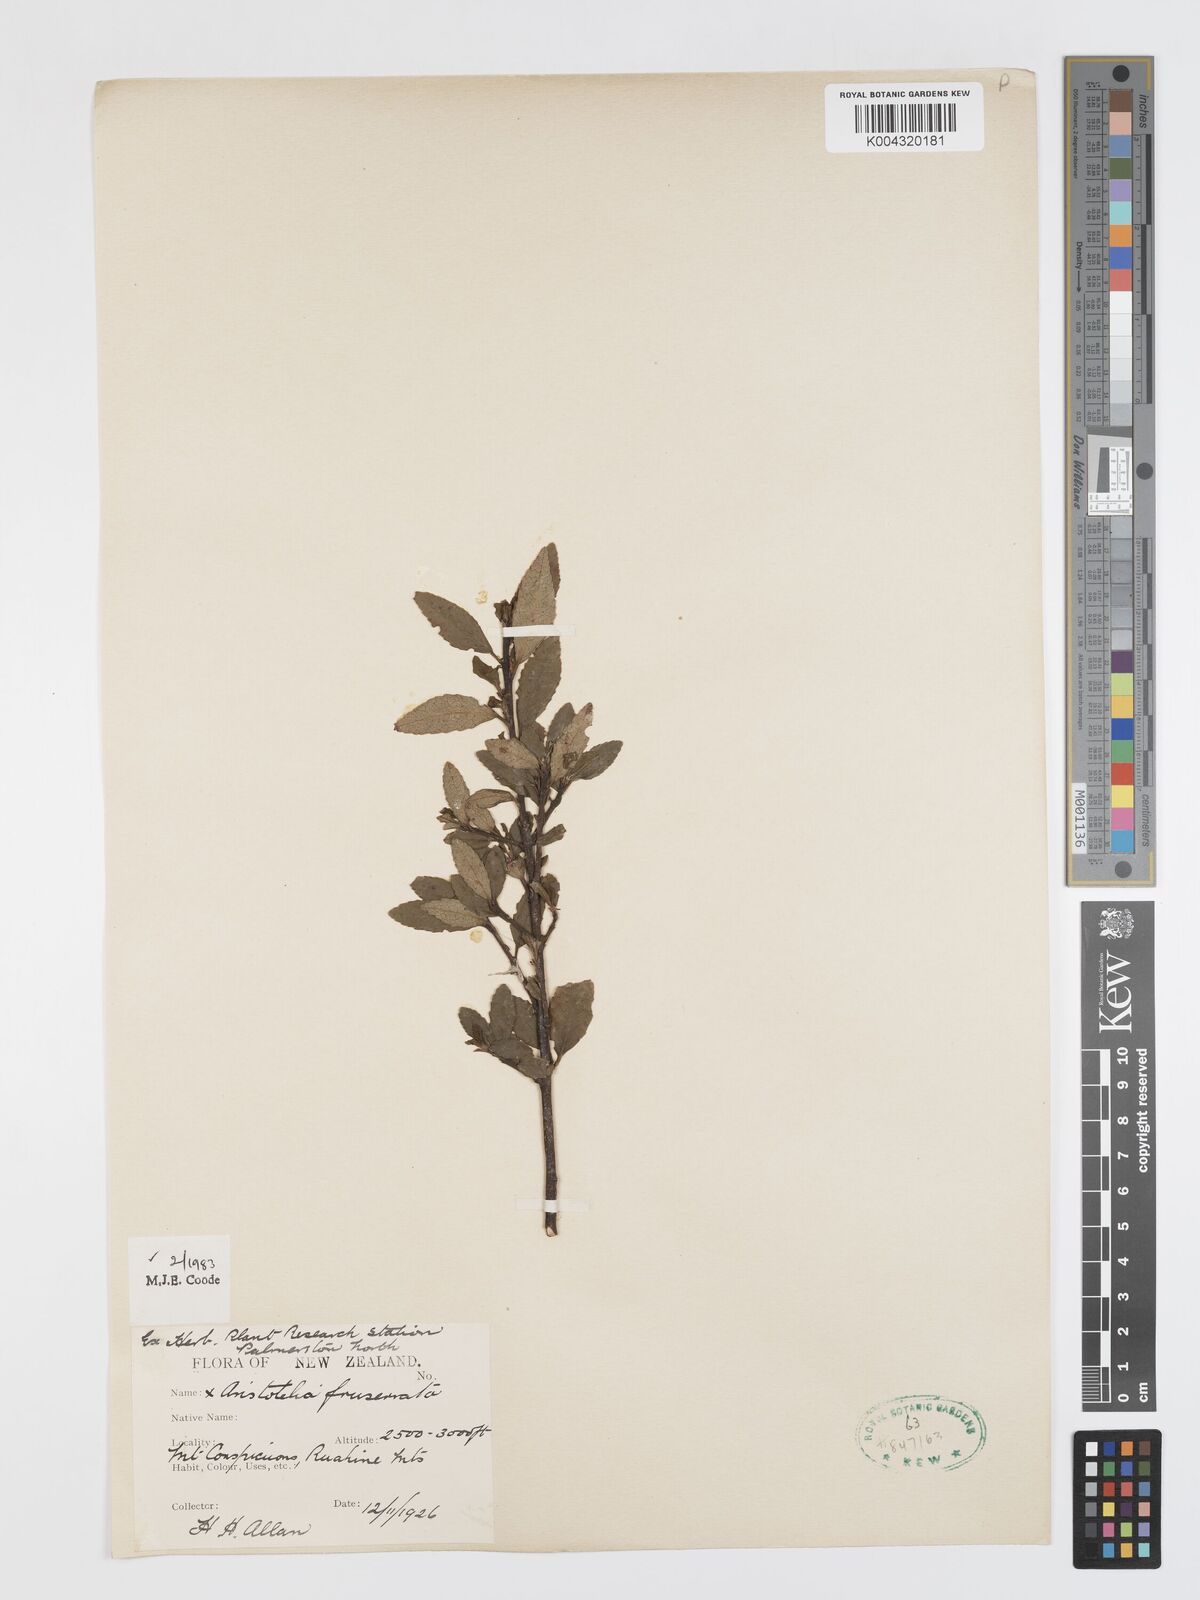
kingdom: Plantae
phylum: Tracheophyta
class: Magnoliopsida
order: Oxalidales
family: Elaeocarpaceae
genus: Aristotelia
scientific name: Aristotelia fruticosa
